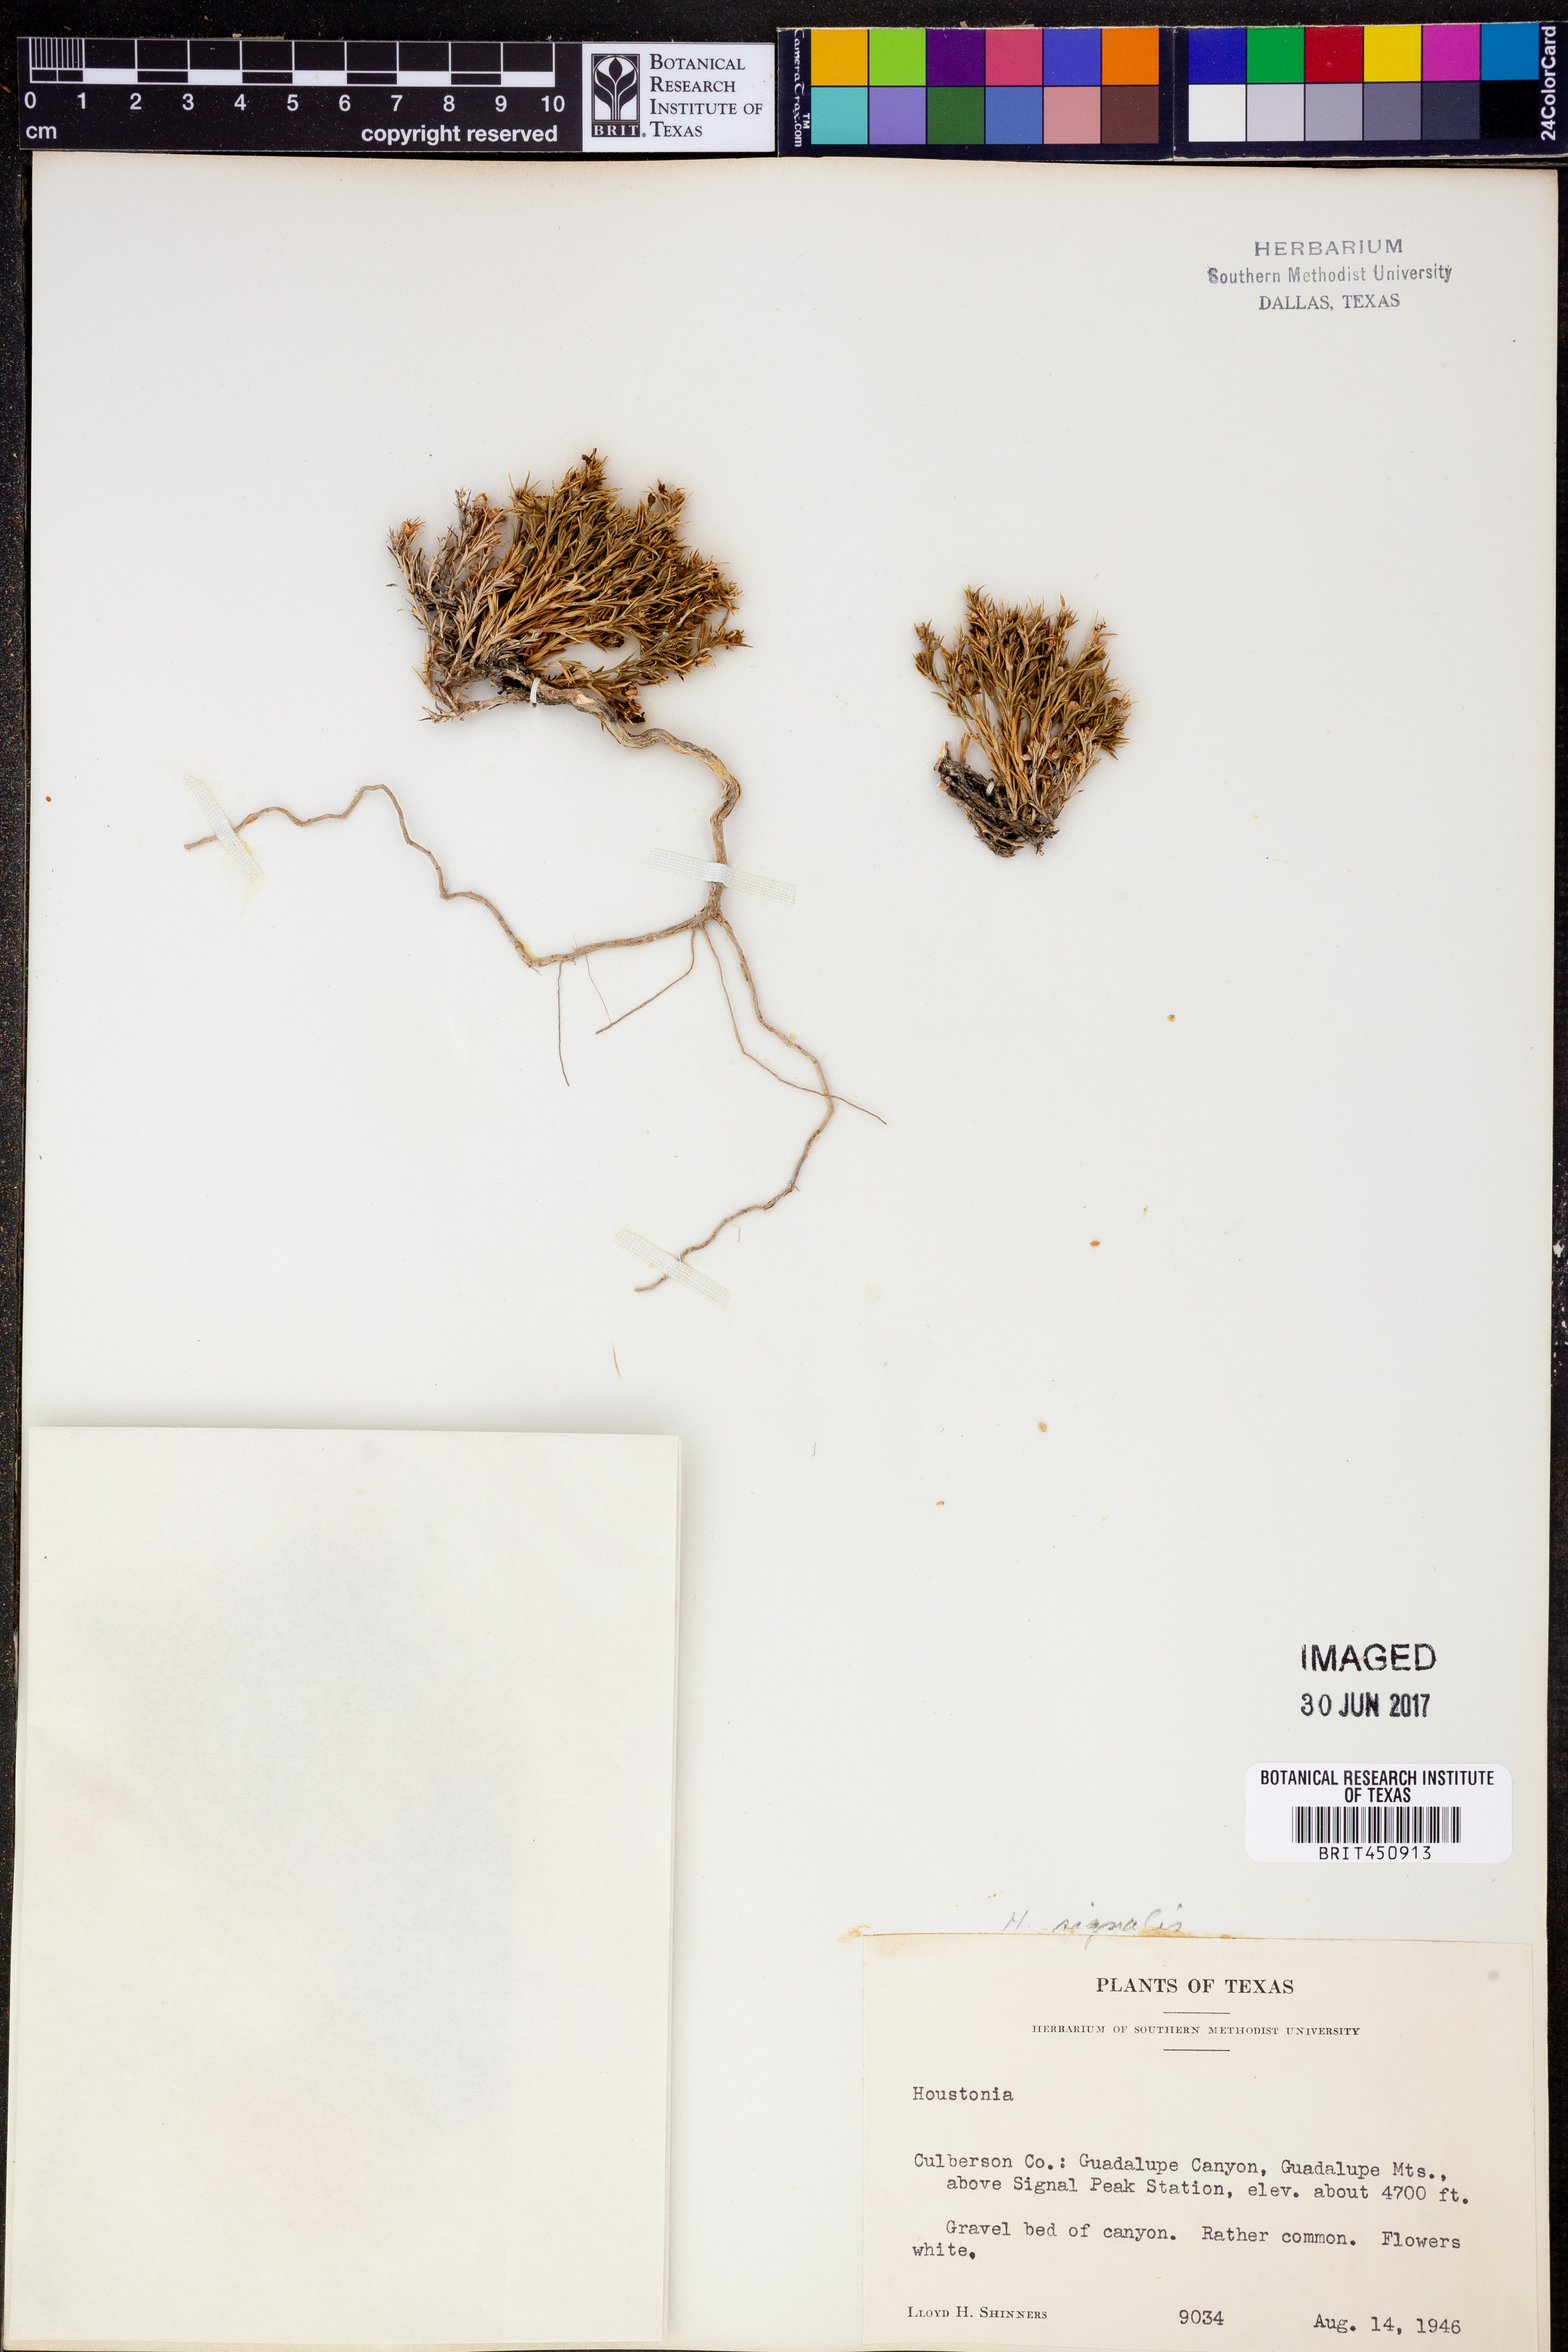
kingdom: Plantae
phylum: Tracheophyta
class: Magnoliopsida
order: Gentianales
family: Rubiaceae
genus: Houstonia
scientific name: Houstonia
